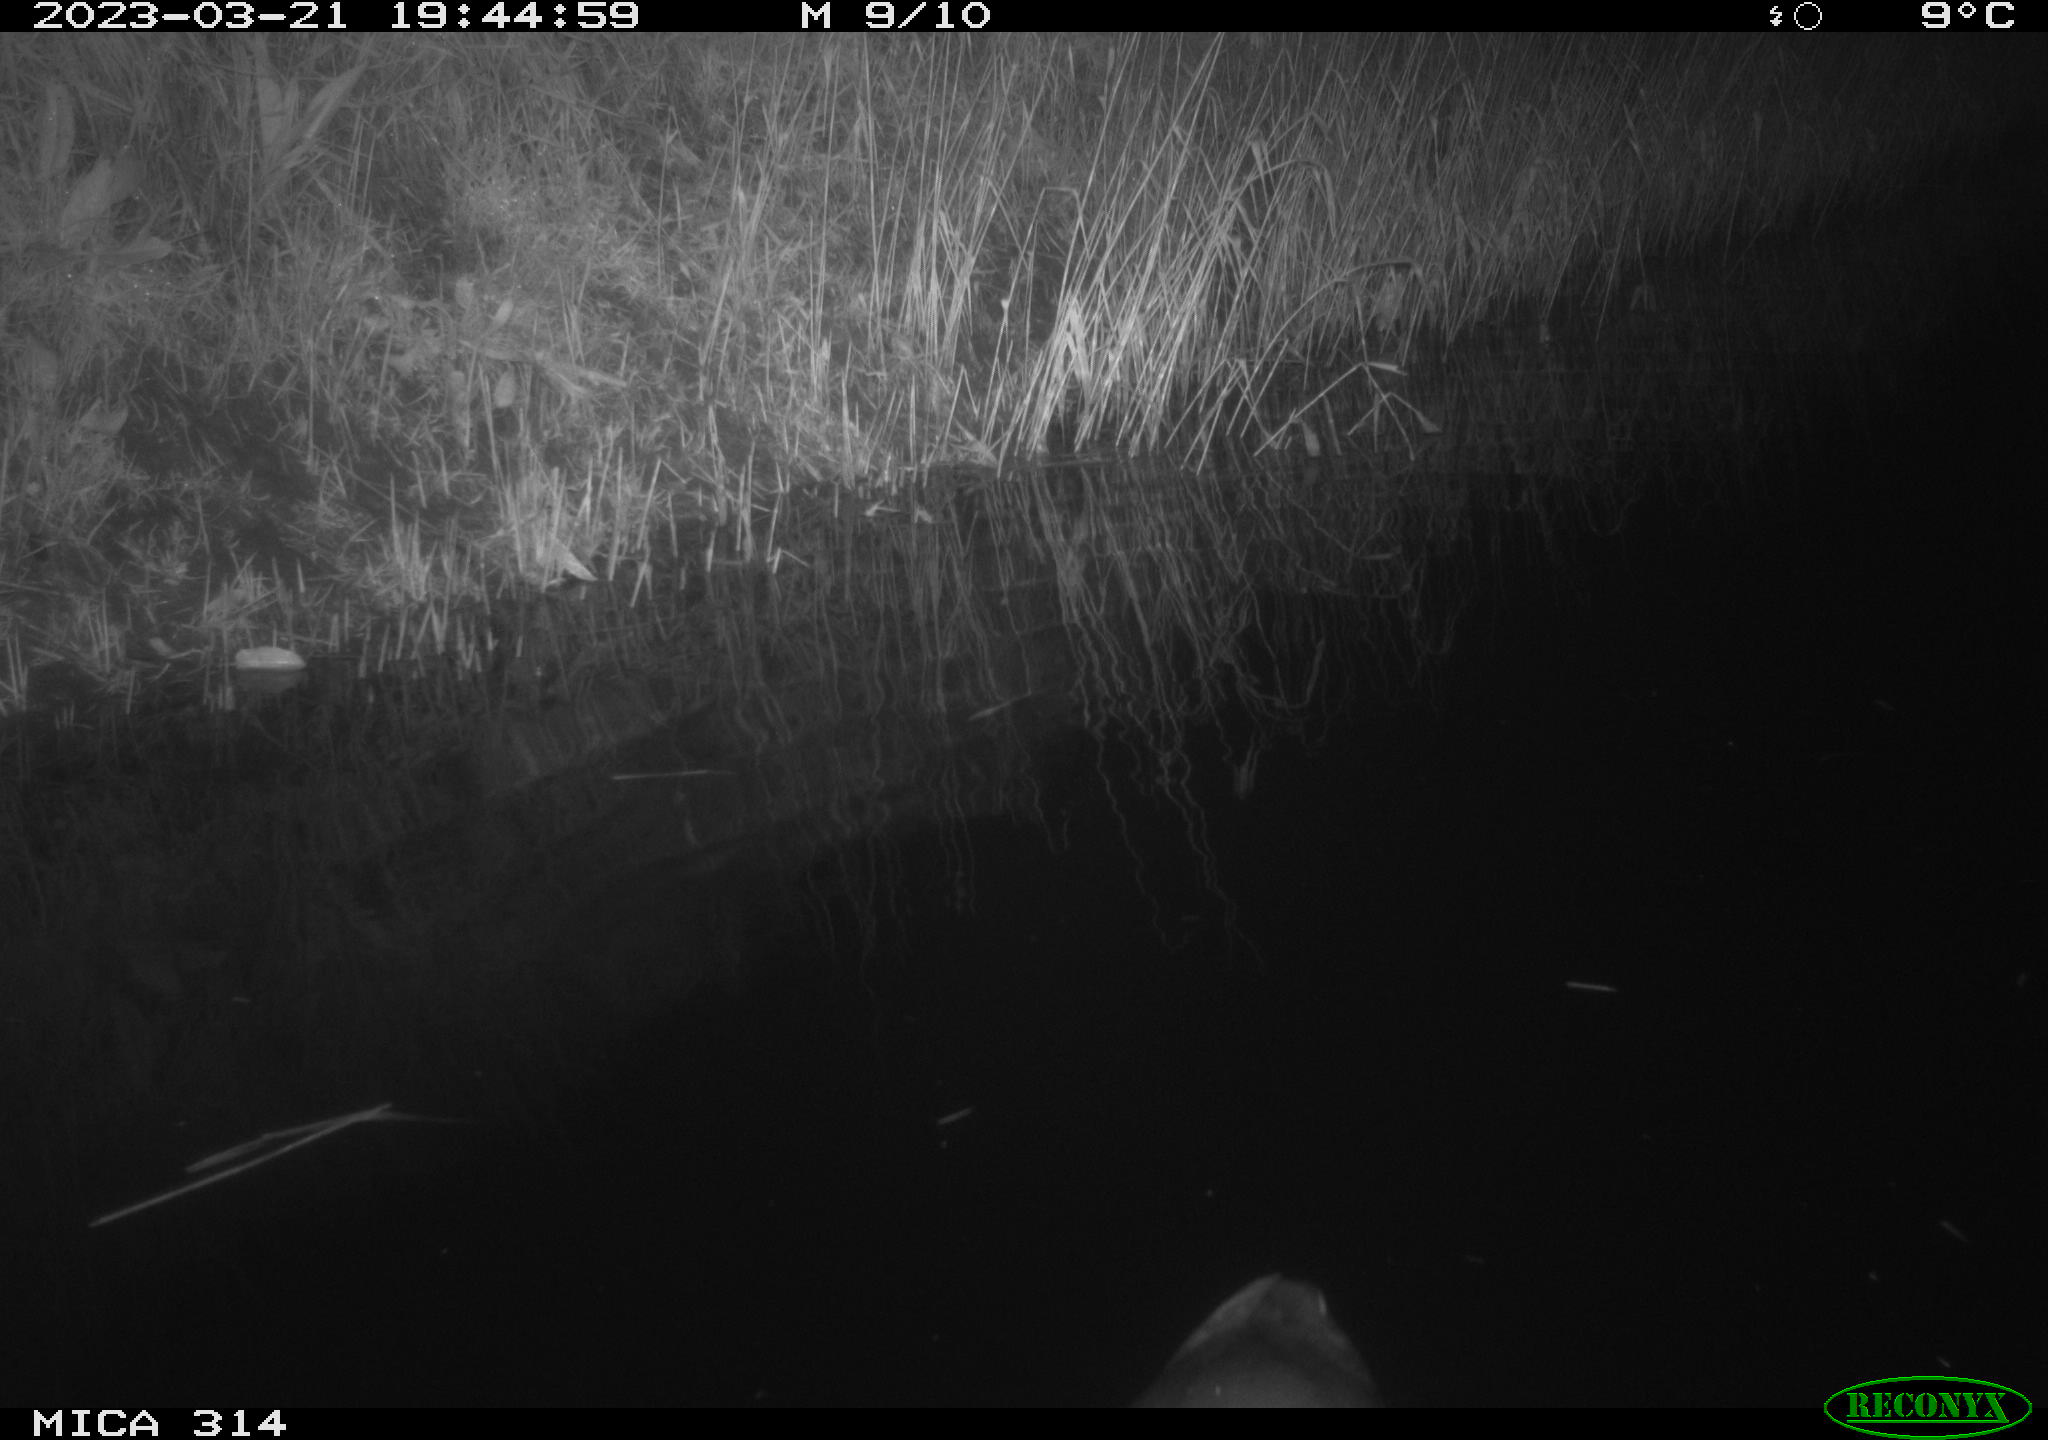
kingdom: Animalia
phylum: Chordata
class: Aves
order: Gruiformes
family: Rallidae
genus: Gallinula
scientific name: Gallinula chloropus
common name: Common moorhen
